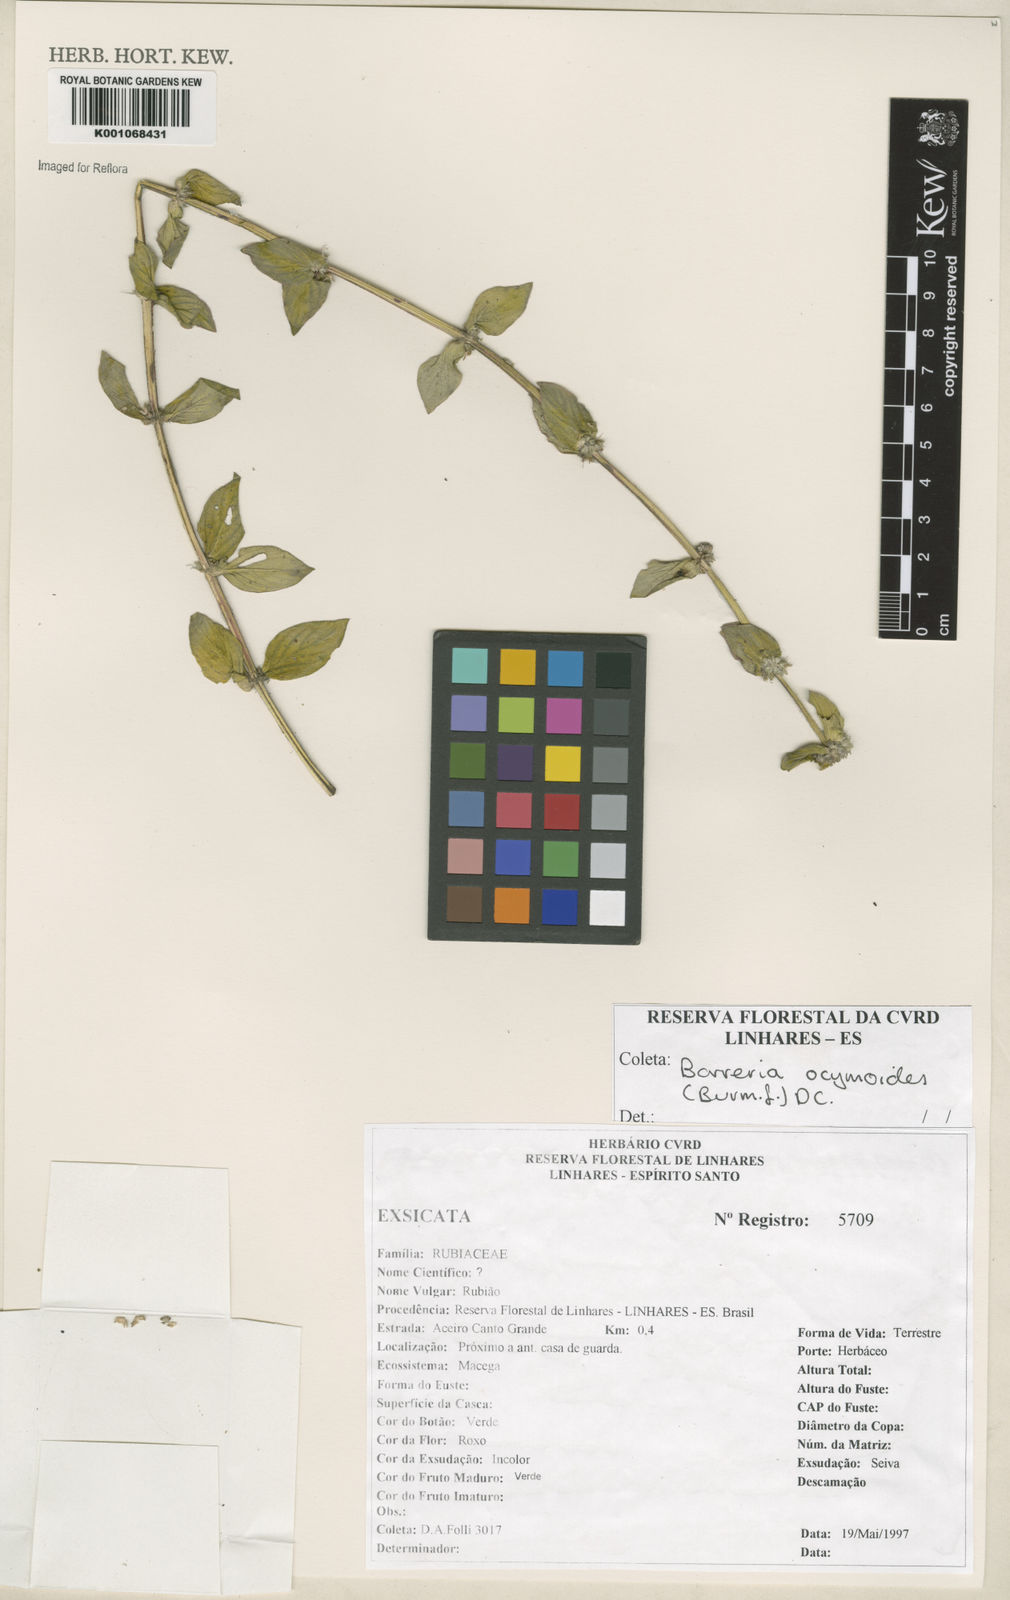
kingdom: Plantae
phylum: Tracheophyta
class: Magnoliopsida
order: Gentianales
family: Rubiaceae
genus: Spermacoce
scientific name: Spermacoce ocymoides
